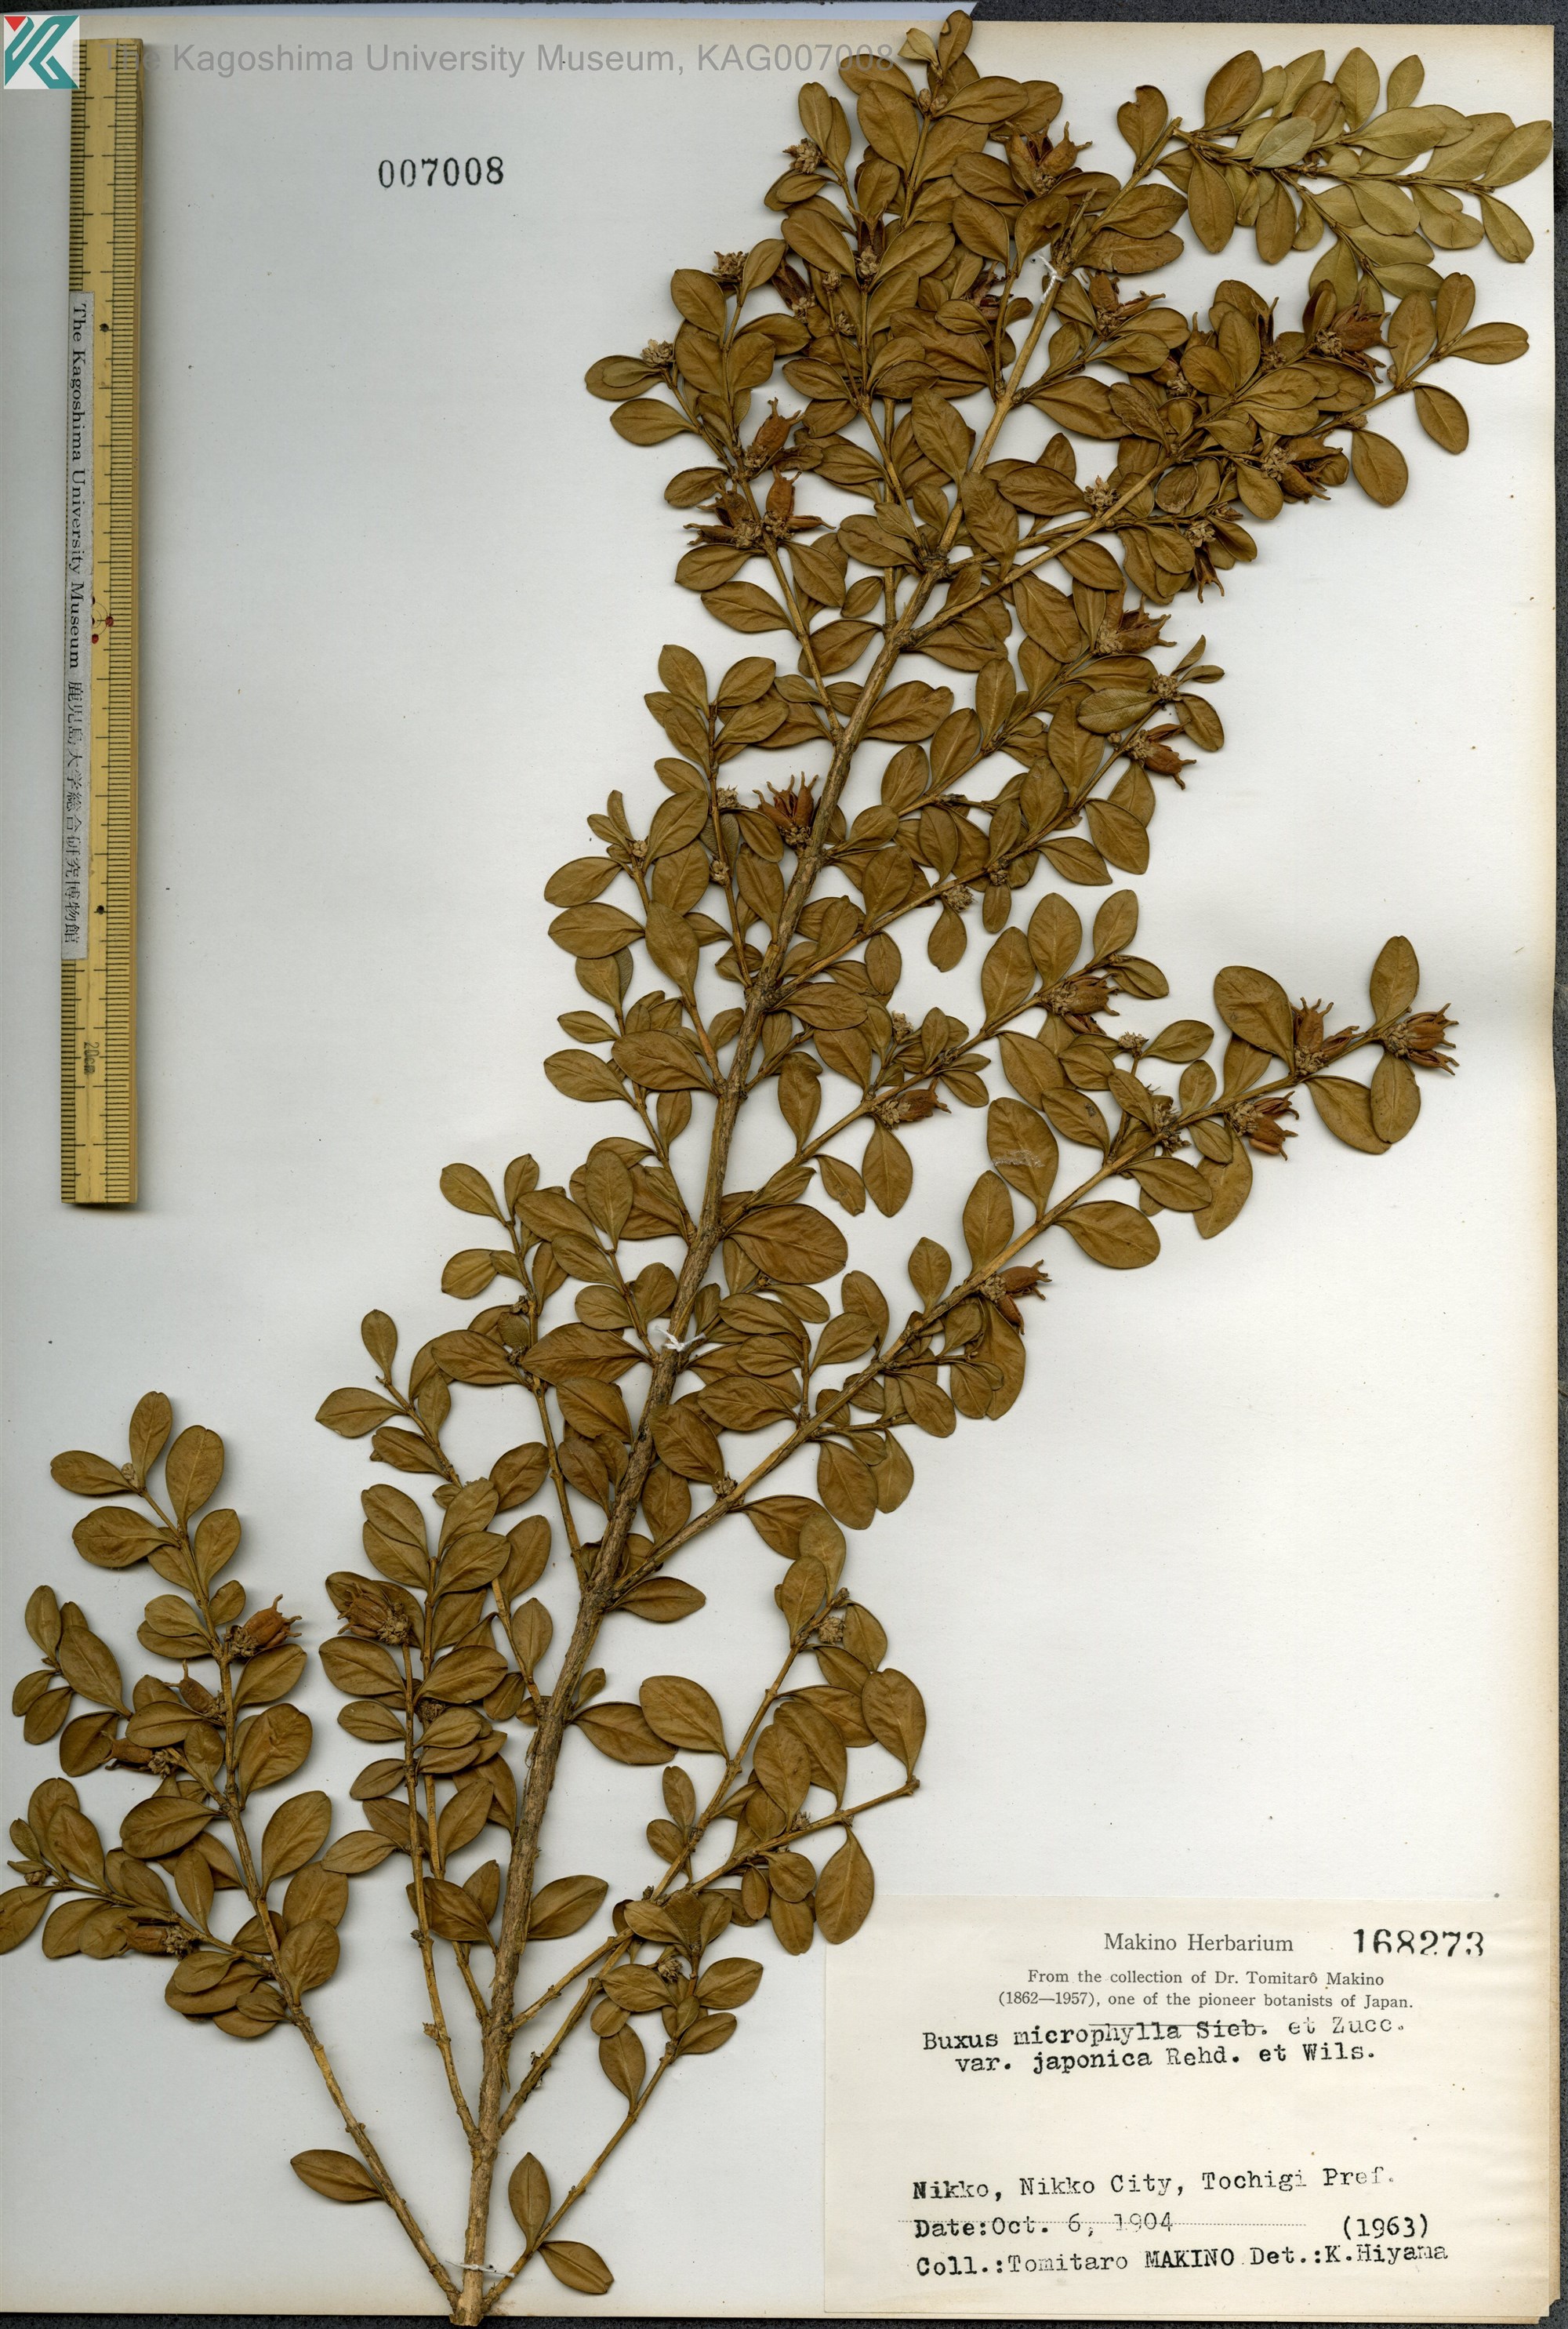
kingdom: Plantae
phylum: Tracheophyta
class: Magnoliopsida
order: Buxales
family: Buxaceae
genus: Buxus
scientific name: Buxus microphylla
